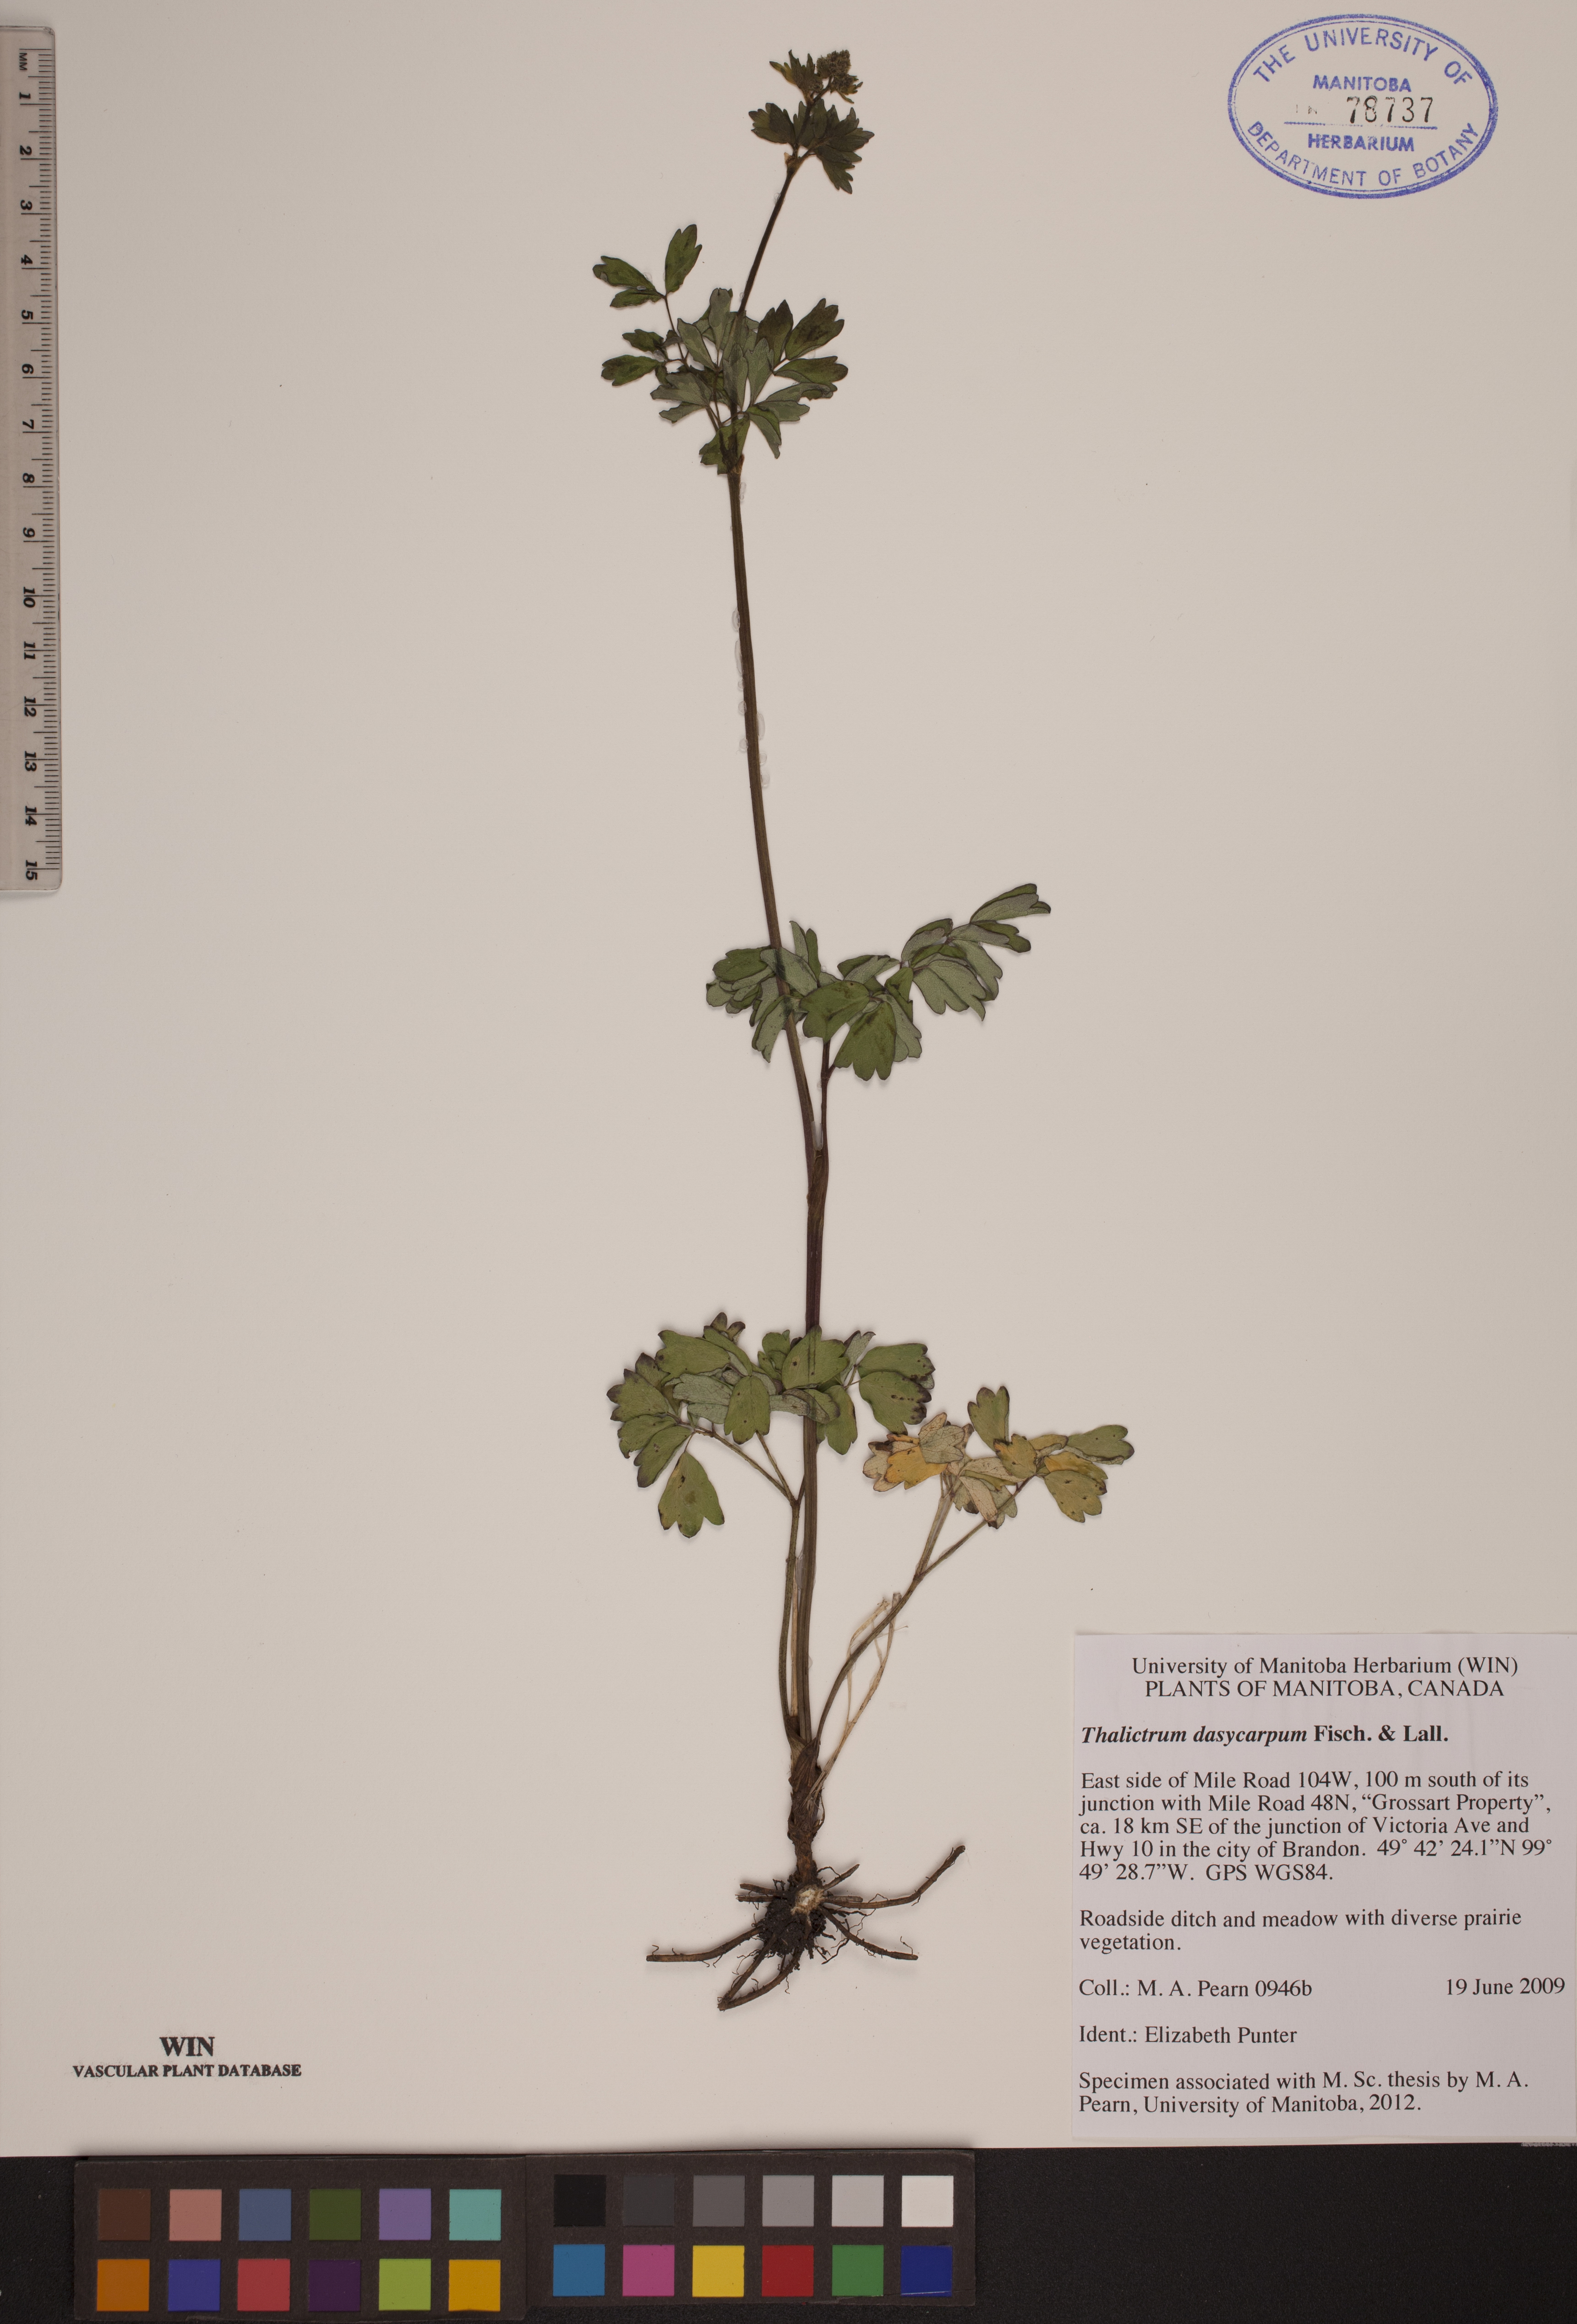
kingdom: Plantae
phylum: Tracheophyta
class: Magnoliopsida
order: Ranunculales
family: Ranunculaceae
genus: Thalictrum
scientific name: Thalictrum dasycarpum
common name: Purple meadow-rue
